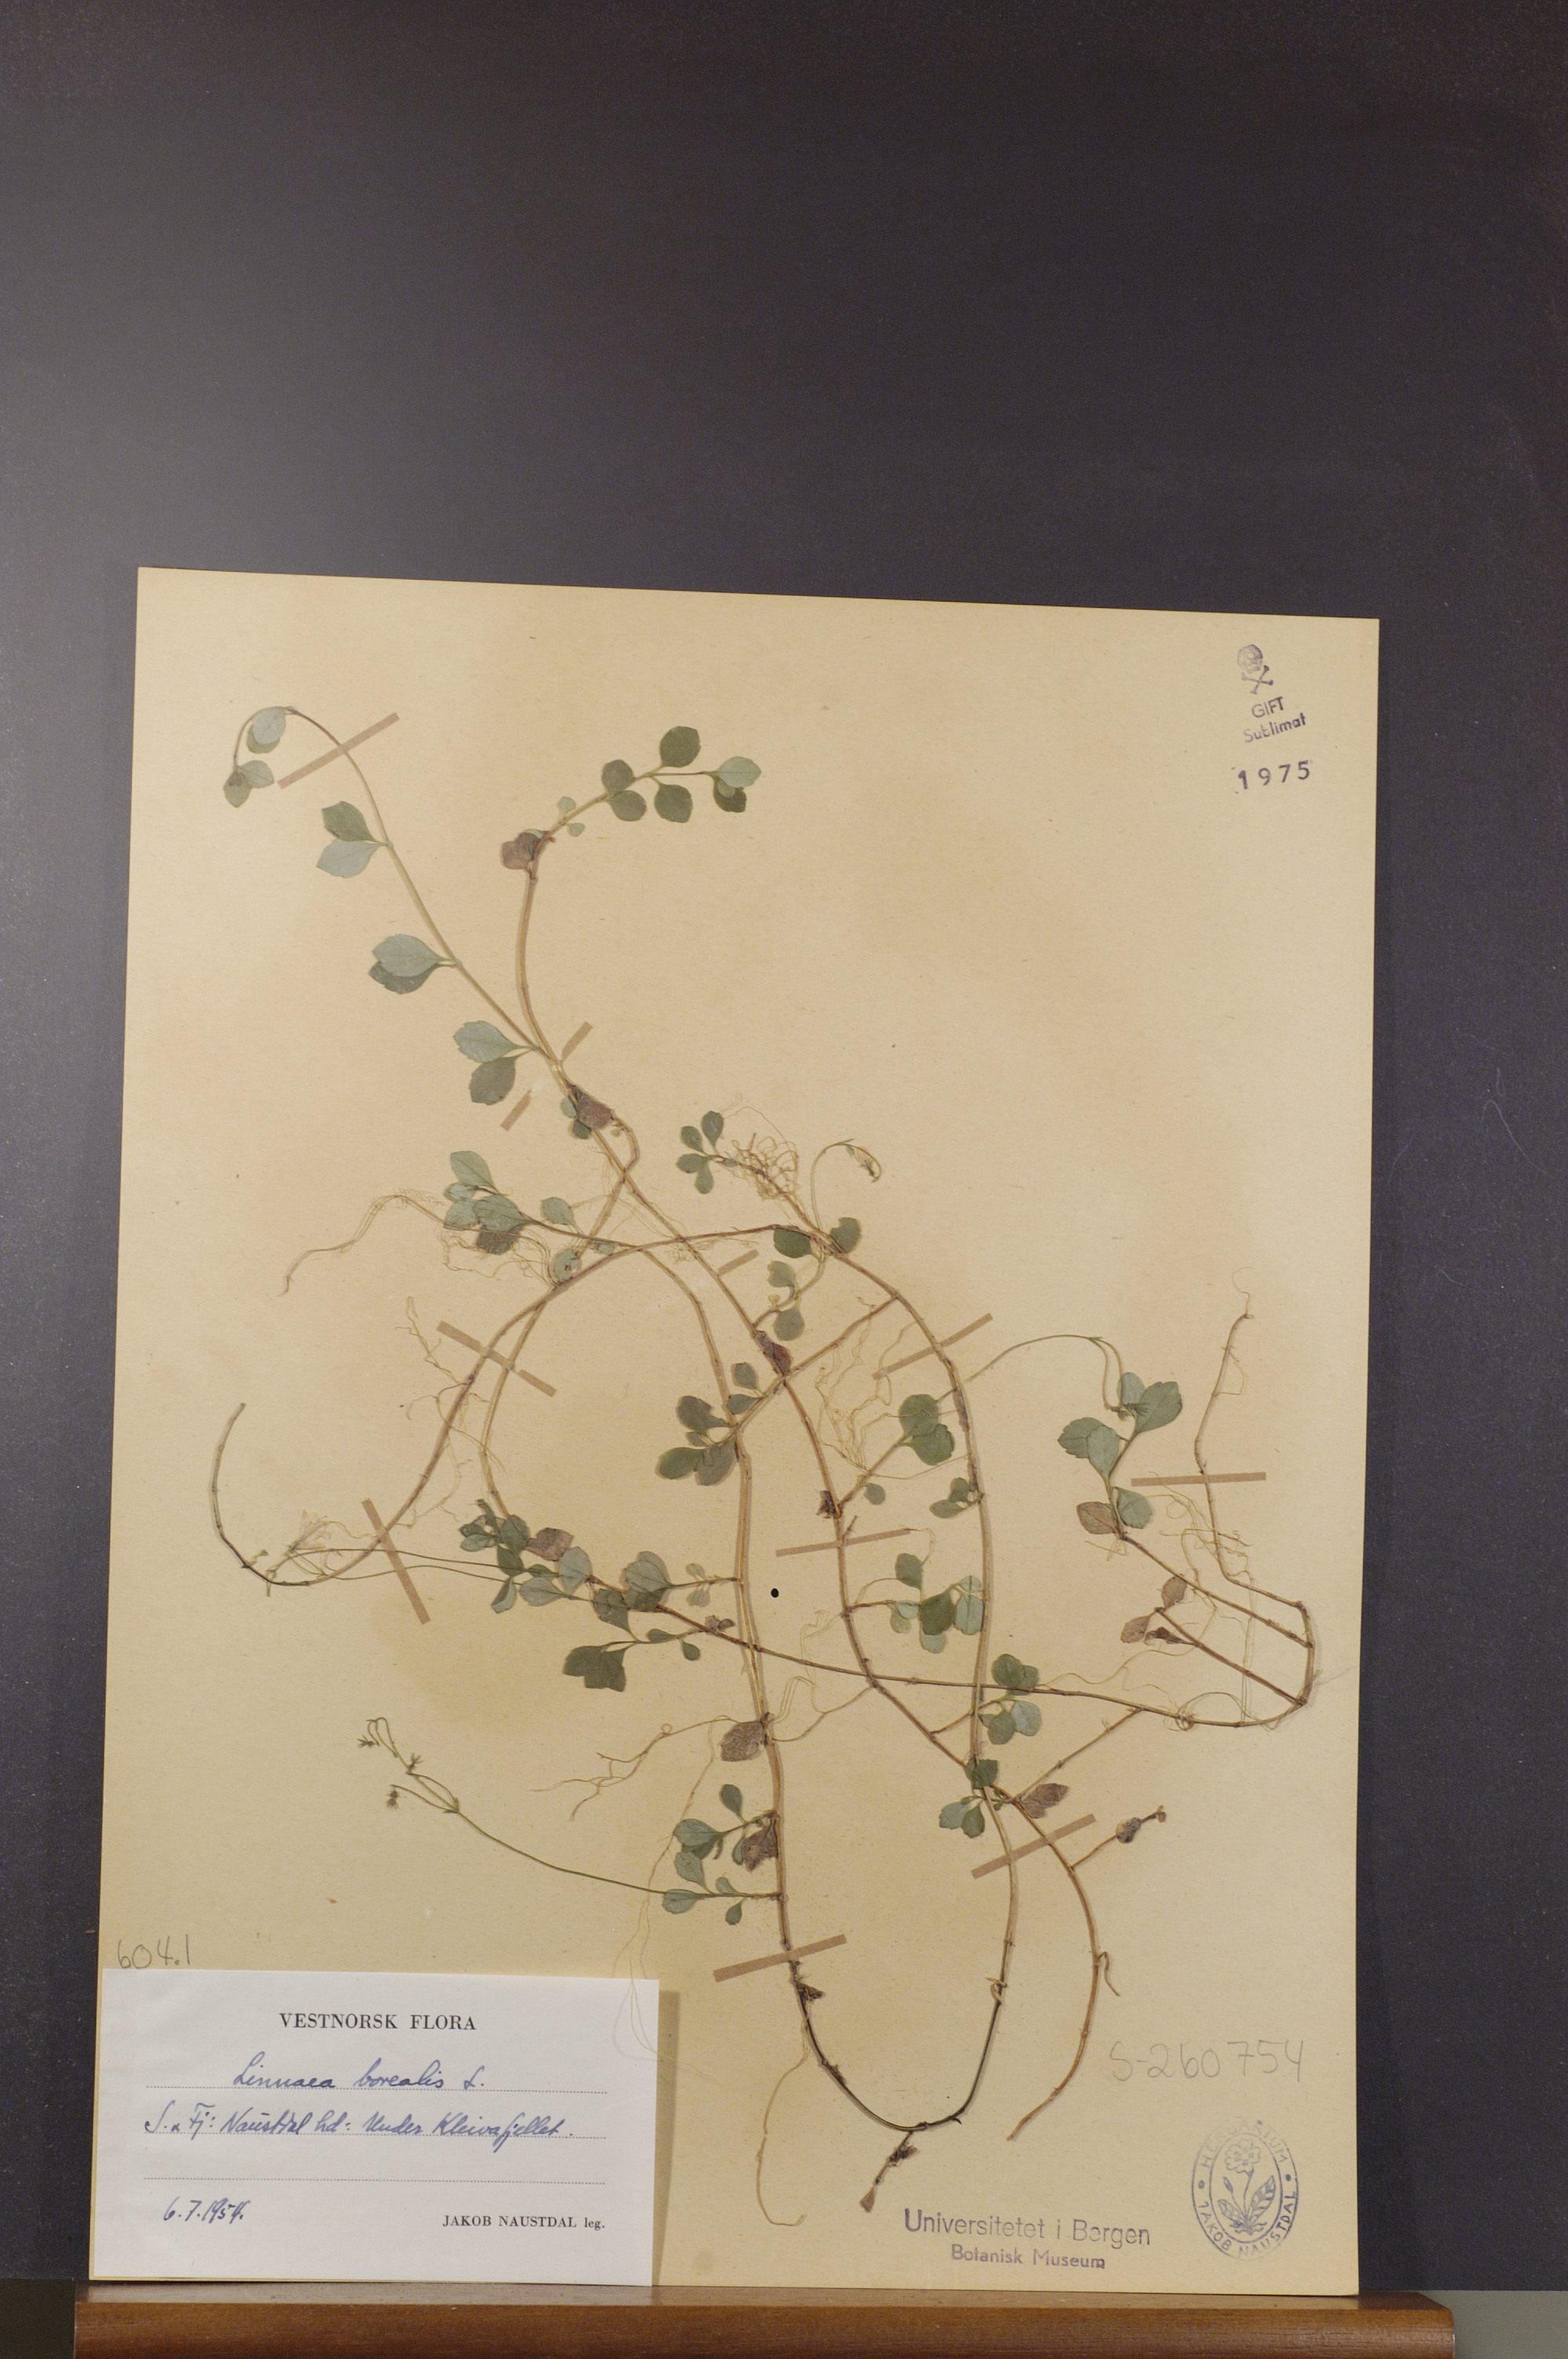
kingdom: Plantae
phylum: Tracheophyta
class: Magnoliopsida
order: Dipsacales
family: Caprifoliaceae
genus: Linnaea
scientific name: Linnaea borealis
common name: Twinflower
